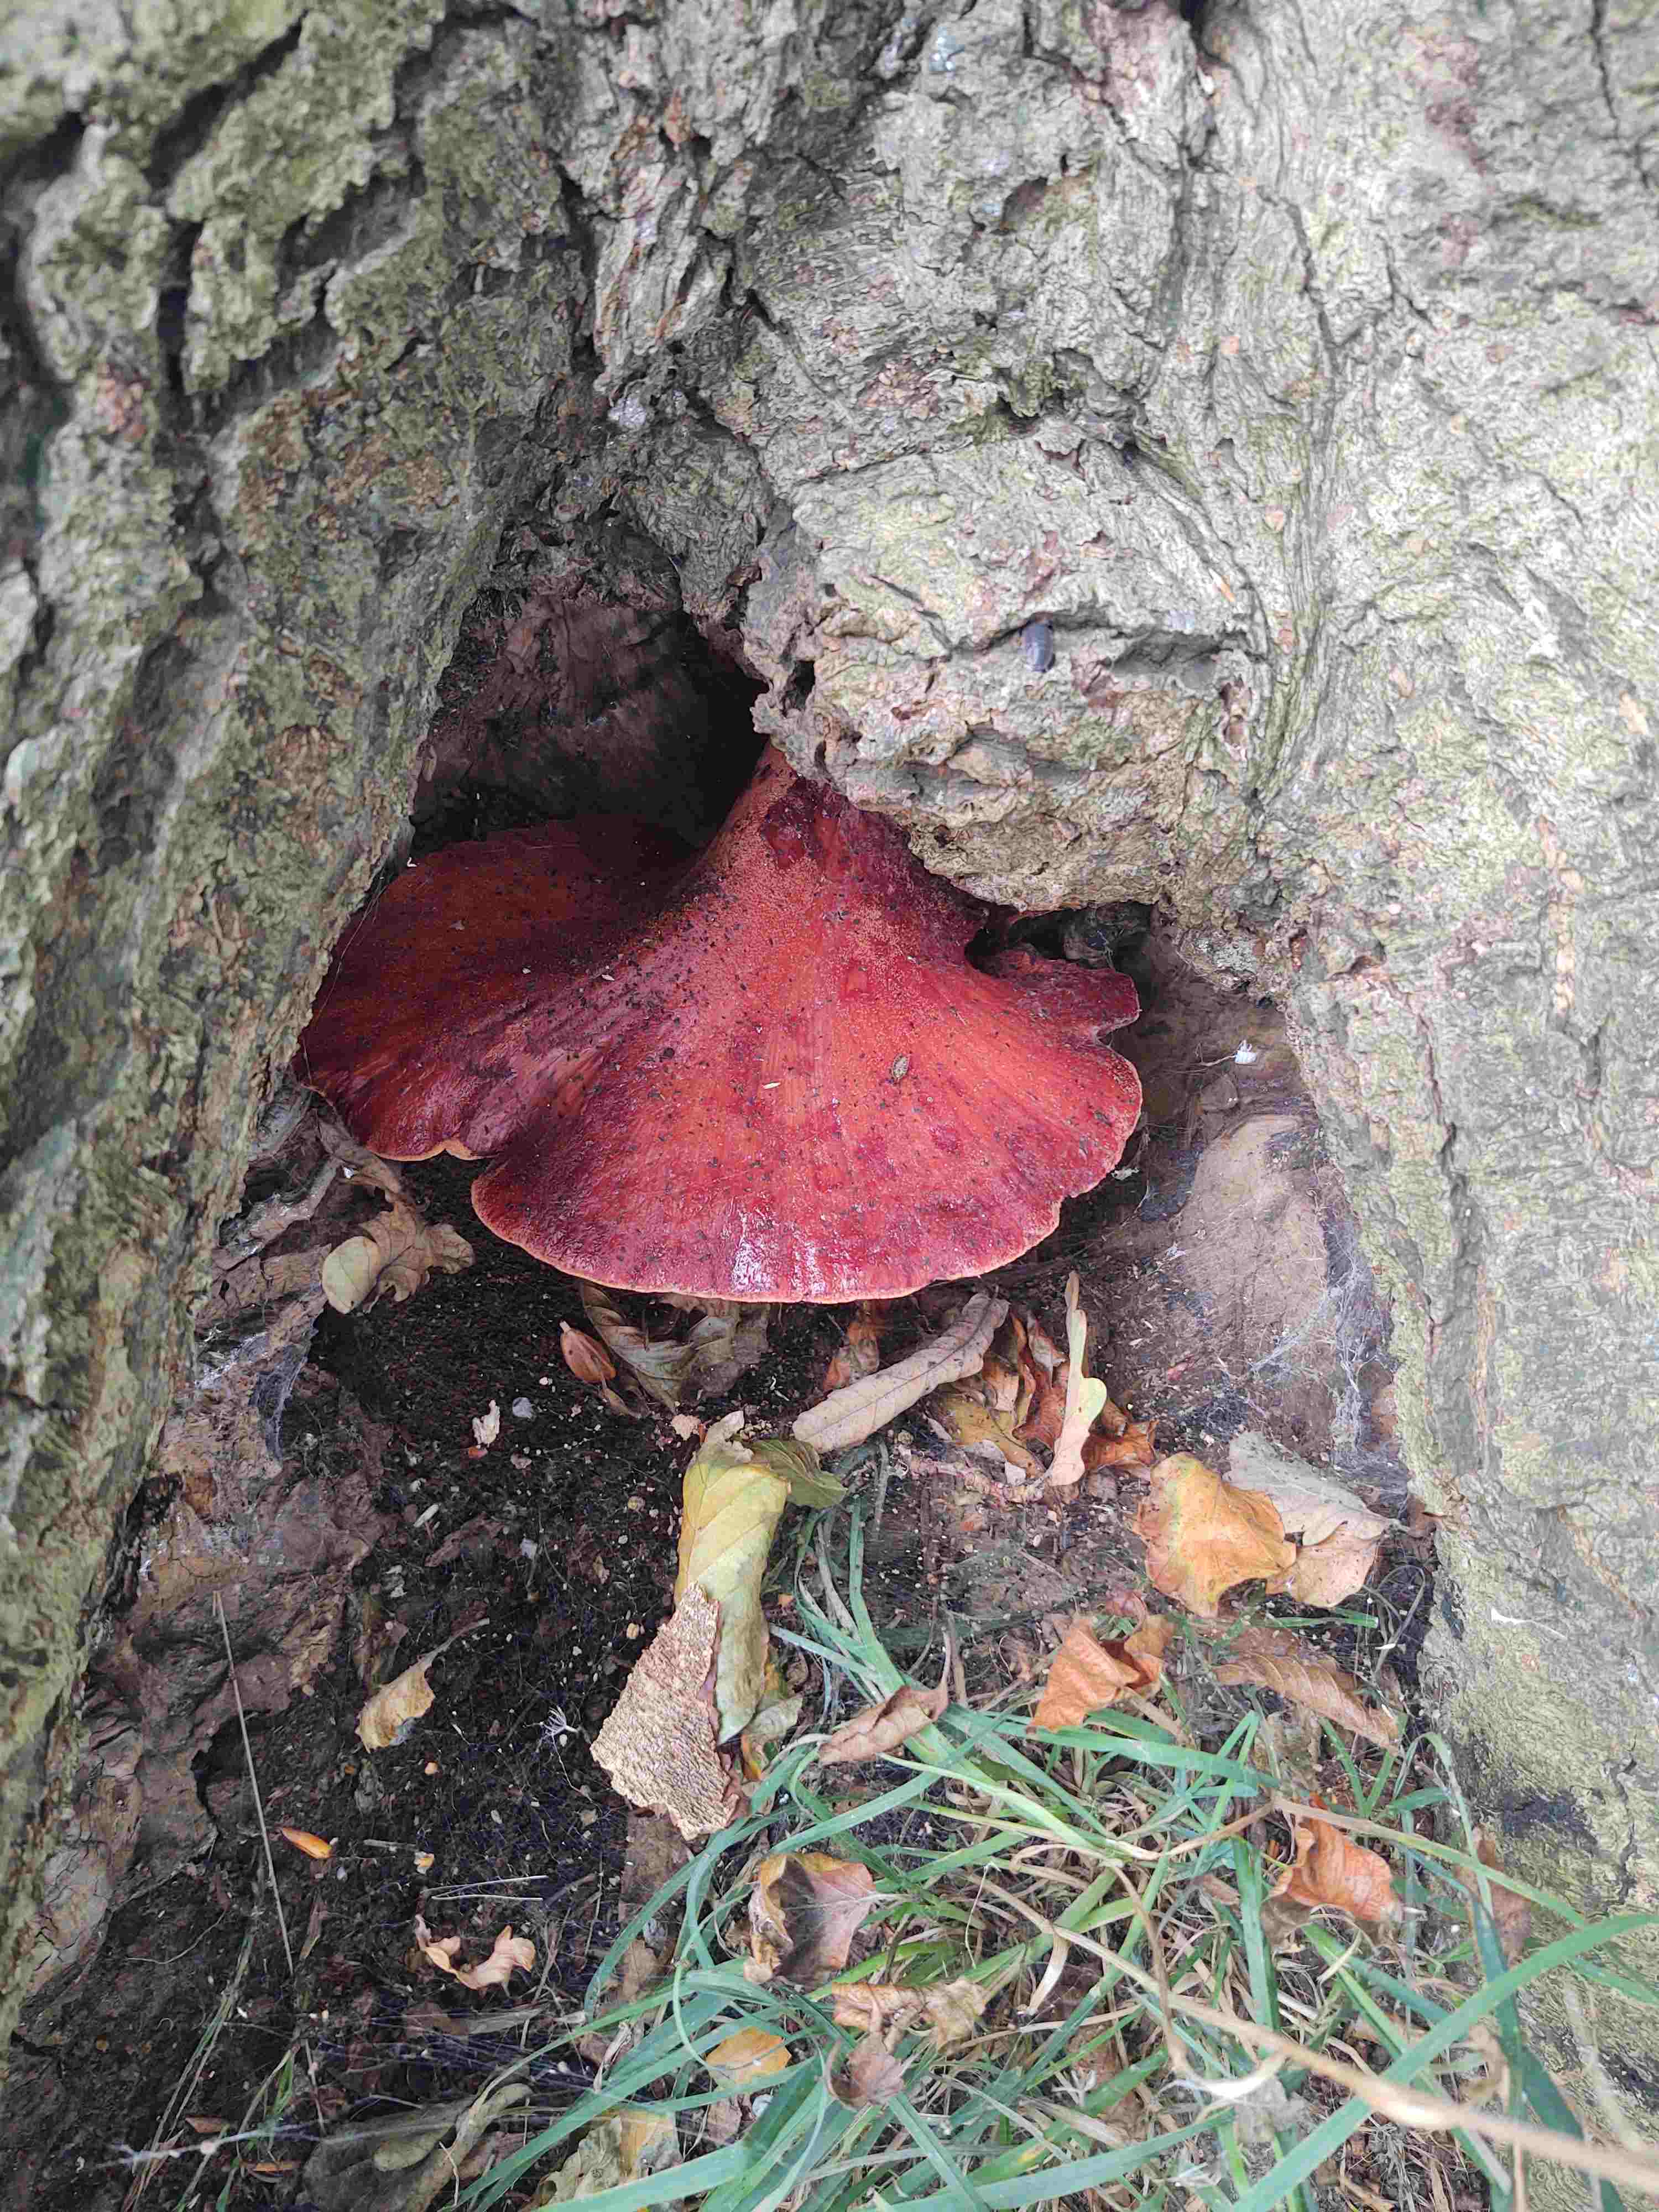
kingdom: Fungi
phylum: Basidiomycota
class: Agaricomycetes
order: Agaricales
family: Fistulinaceae
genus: Fistulina
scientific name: Fistulina hepatica
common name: oksetunge
